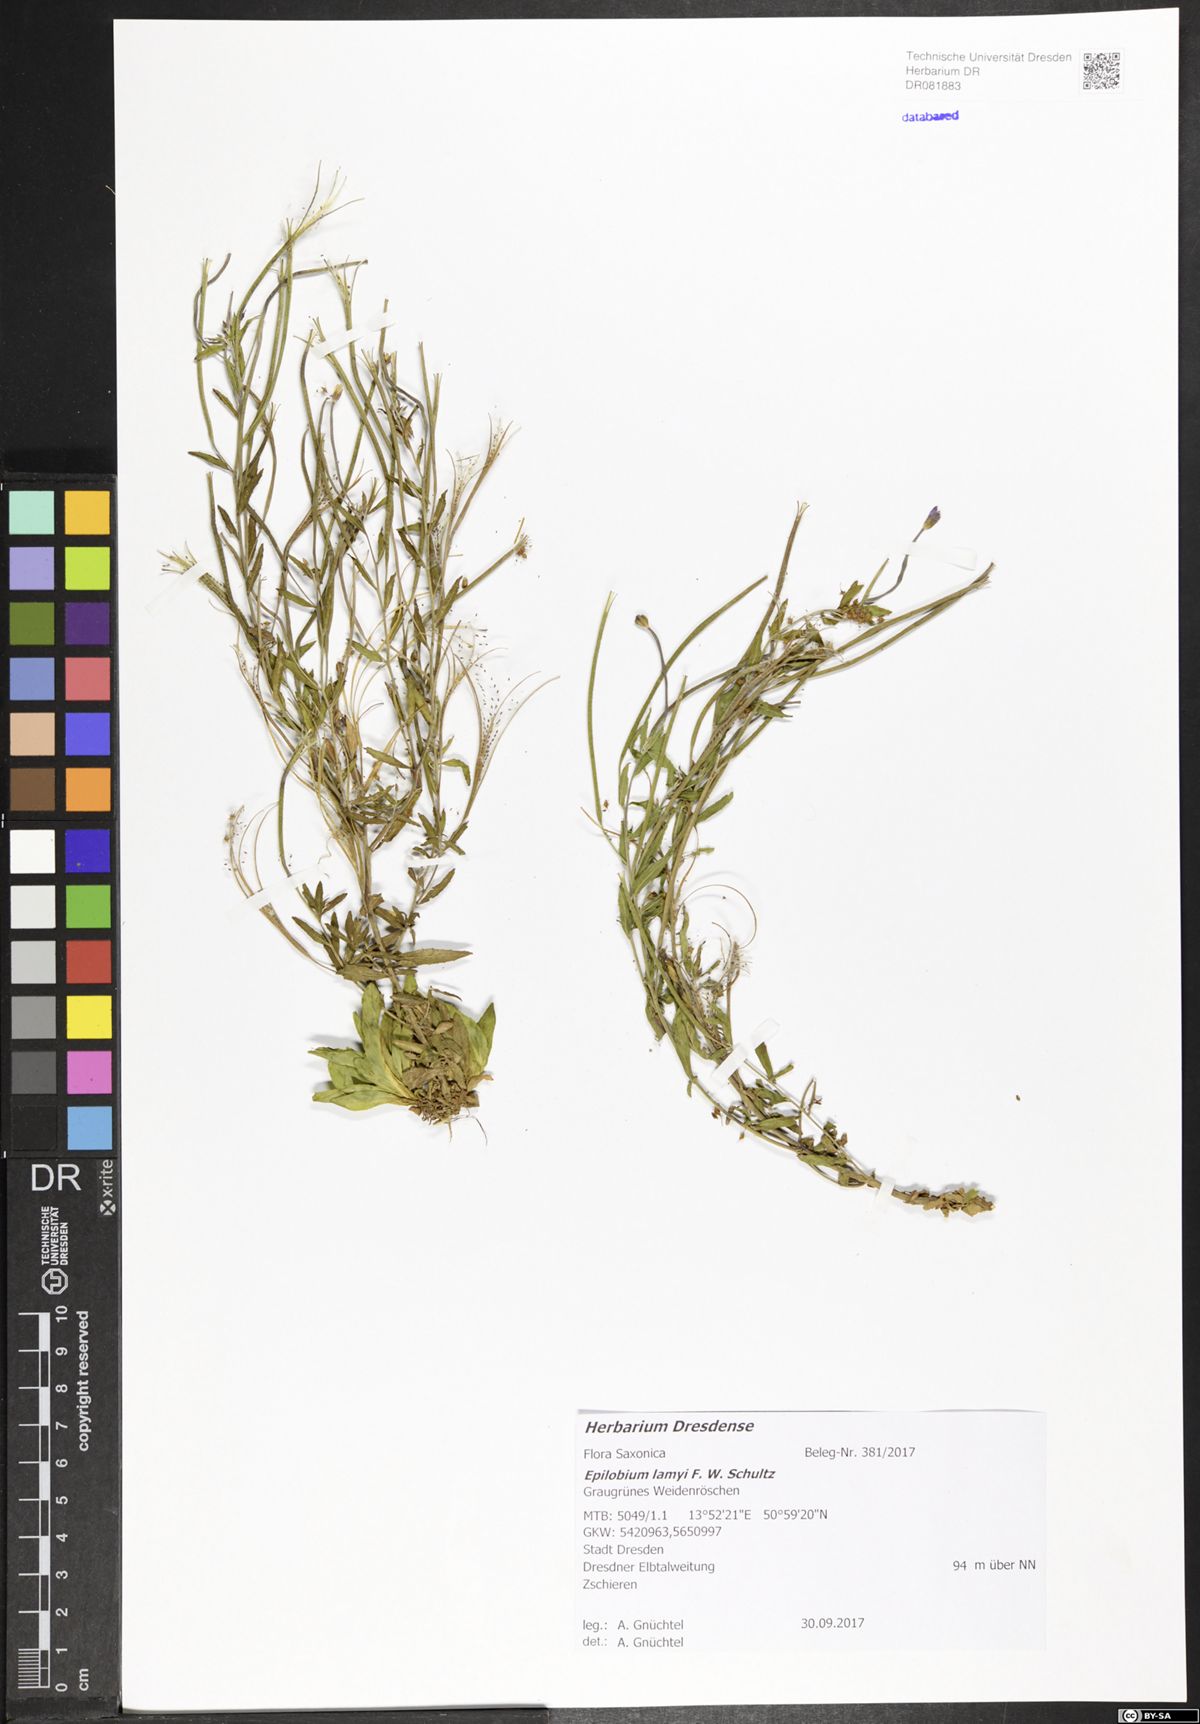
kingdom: Plantae
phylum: Tracheophyta
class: Magnoliopsida
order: Myrtales
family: Onagraceae
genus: Epilobium
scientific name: Epilobium lamyi
